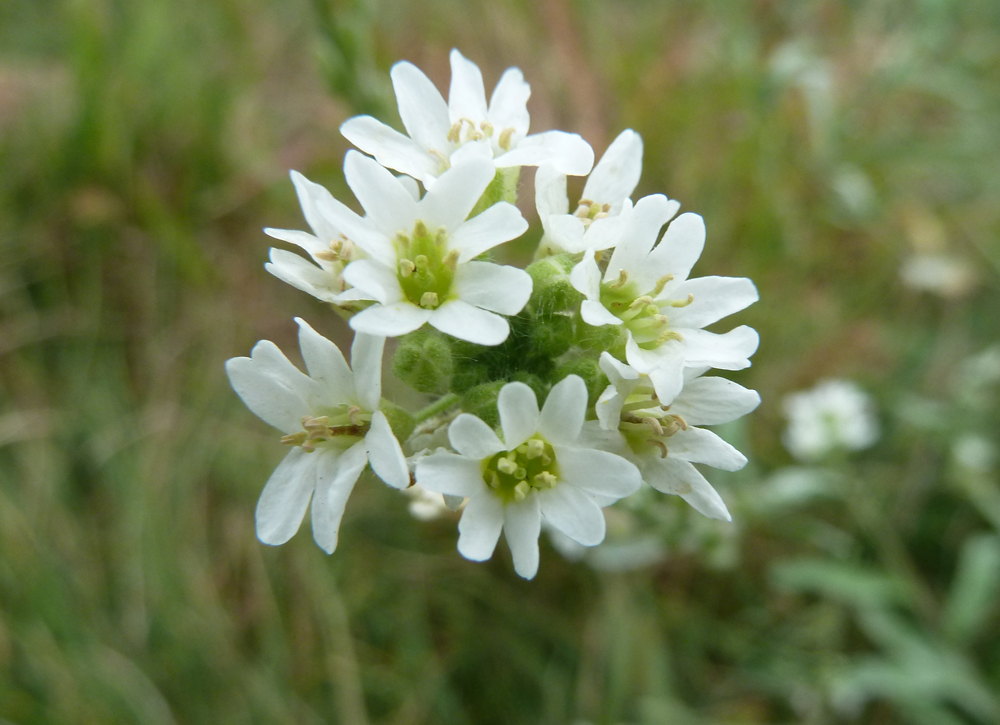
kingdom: Plantae
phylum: Tracheophyta
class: Magnoliopsida
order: Brassicales
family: Brassicaceae
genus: Berteroa
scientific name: Berteroa incana
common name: Hoary alison
